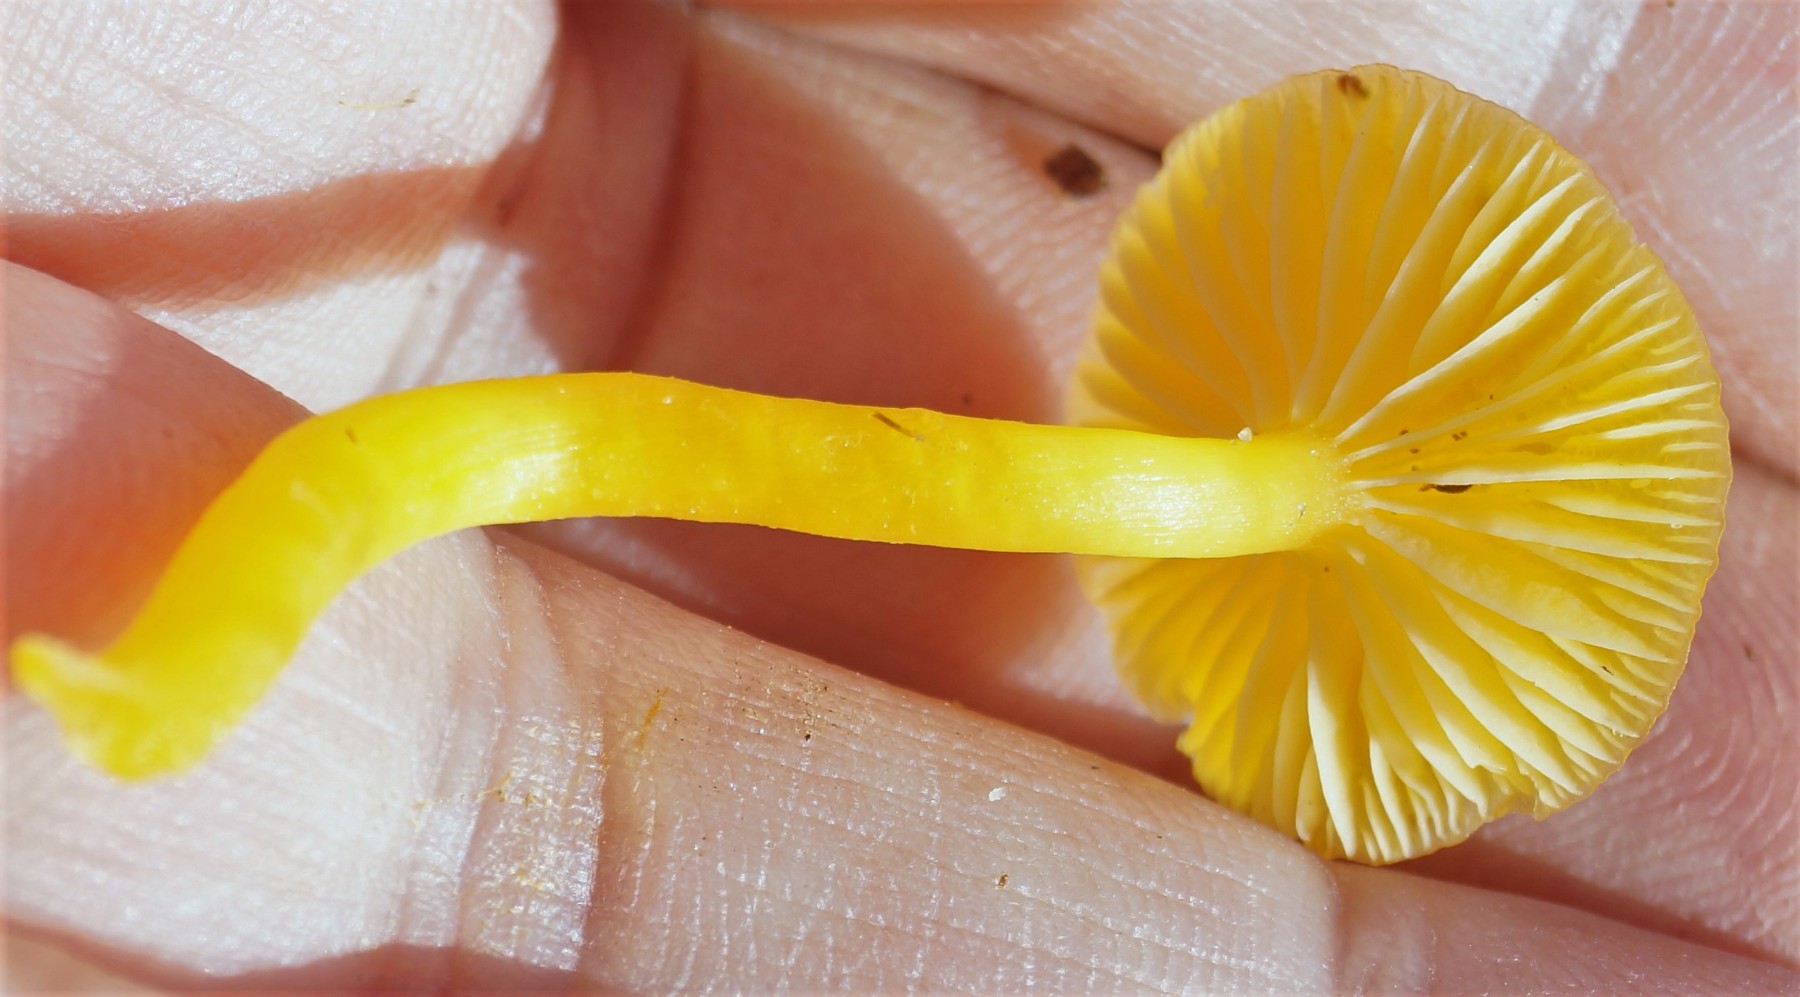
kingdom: Fungi
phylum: Basidiomycota
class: Agaricomycetes
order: Agaricales
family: Hygrophoraceae
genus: Hygrocybe
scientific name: Hygrocybe ceracea
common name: voksgul vokshat
